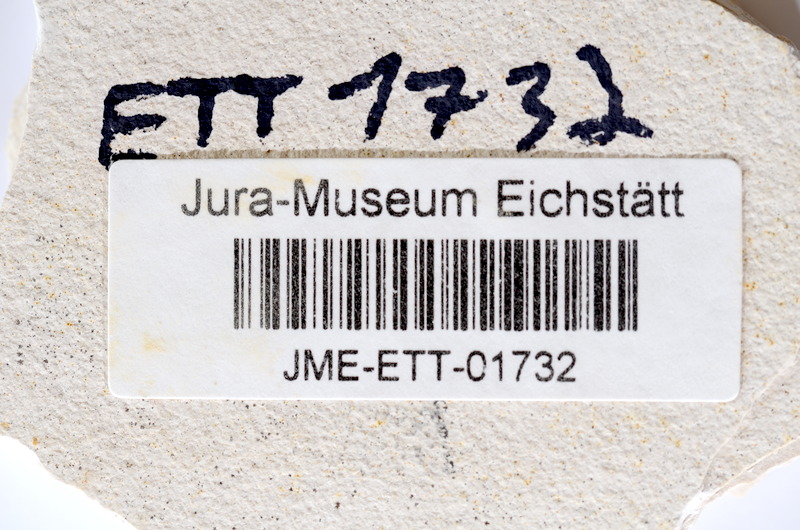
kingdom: Animalia
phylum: Chordata
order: Salmoniformes
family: Orthogonikleithridae
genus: Orthogonikleithrus
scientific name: Orthogonikleithrus hoelli
